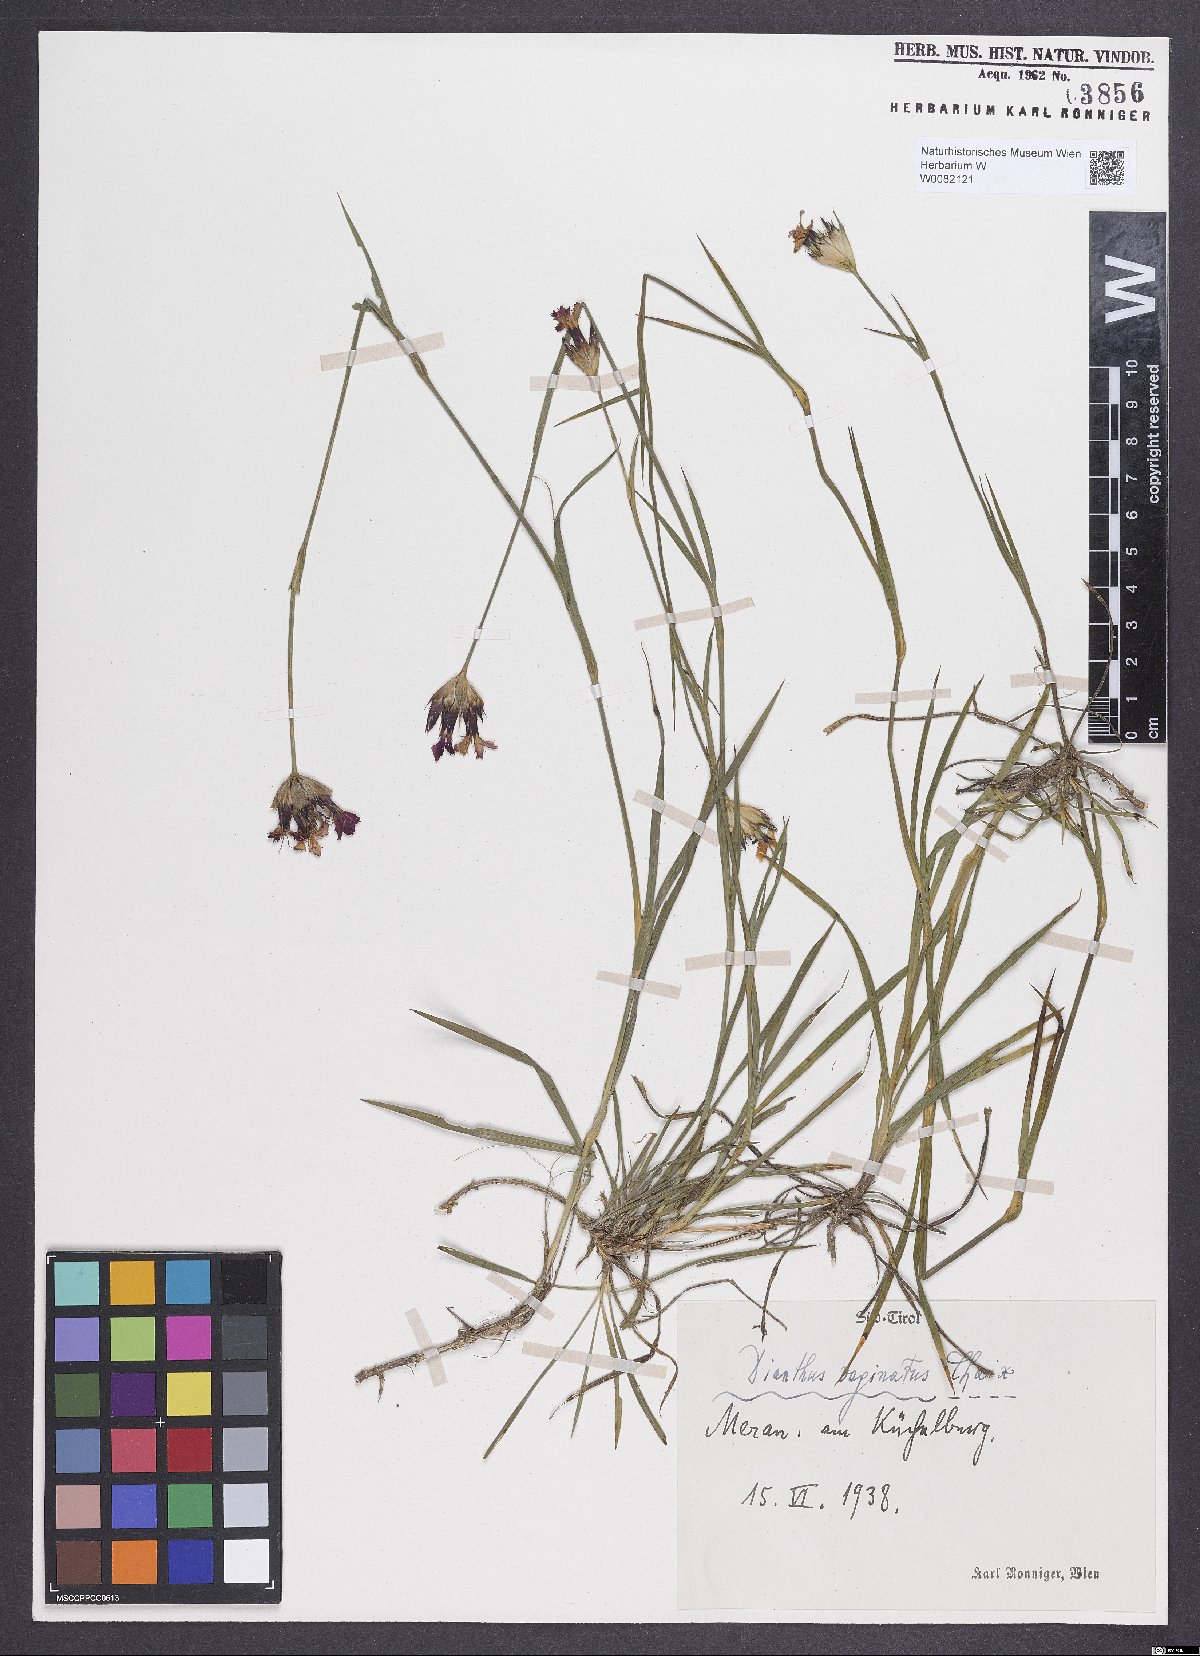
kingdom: Plantae
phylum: Tracheophyta
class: Magnoliopsida
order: Caryophyllales
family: Caryophyllaceae
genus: Dianthus
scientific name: Dianthus carthusianorum
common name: Carthusian pink
